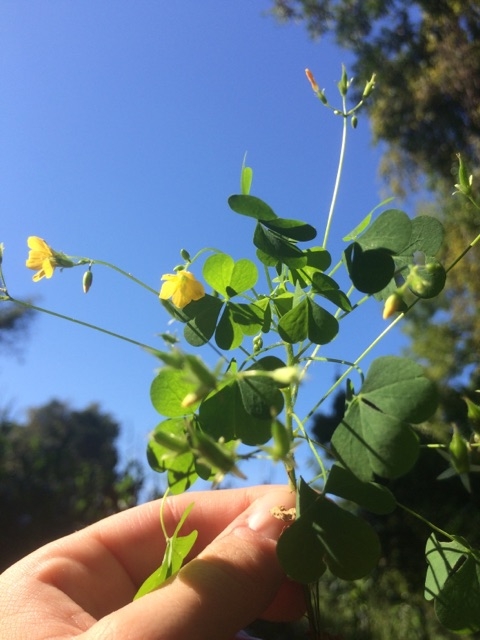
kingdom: Plantae
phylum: Tracheophyta
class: Magnoliopsida
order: Oxalidales
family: Oxalidaceae
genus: Oxalis
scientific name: Oxalis stricta
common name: Common yellow wood-sorrel
